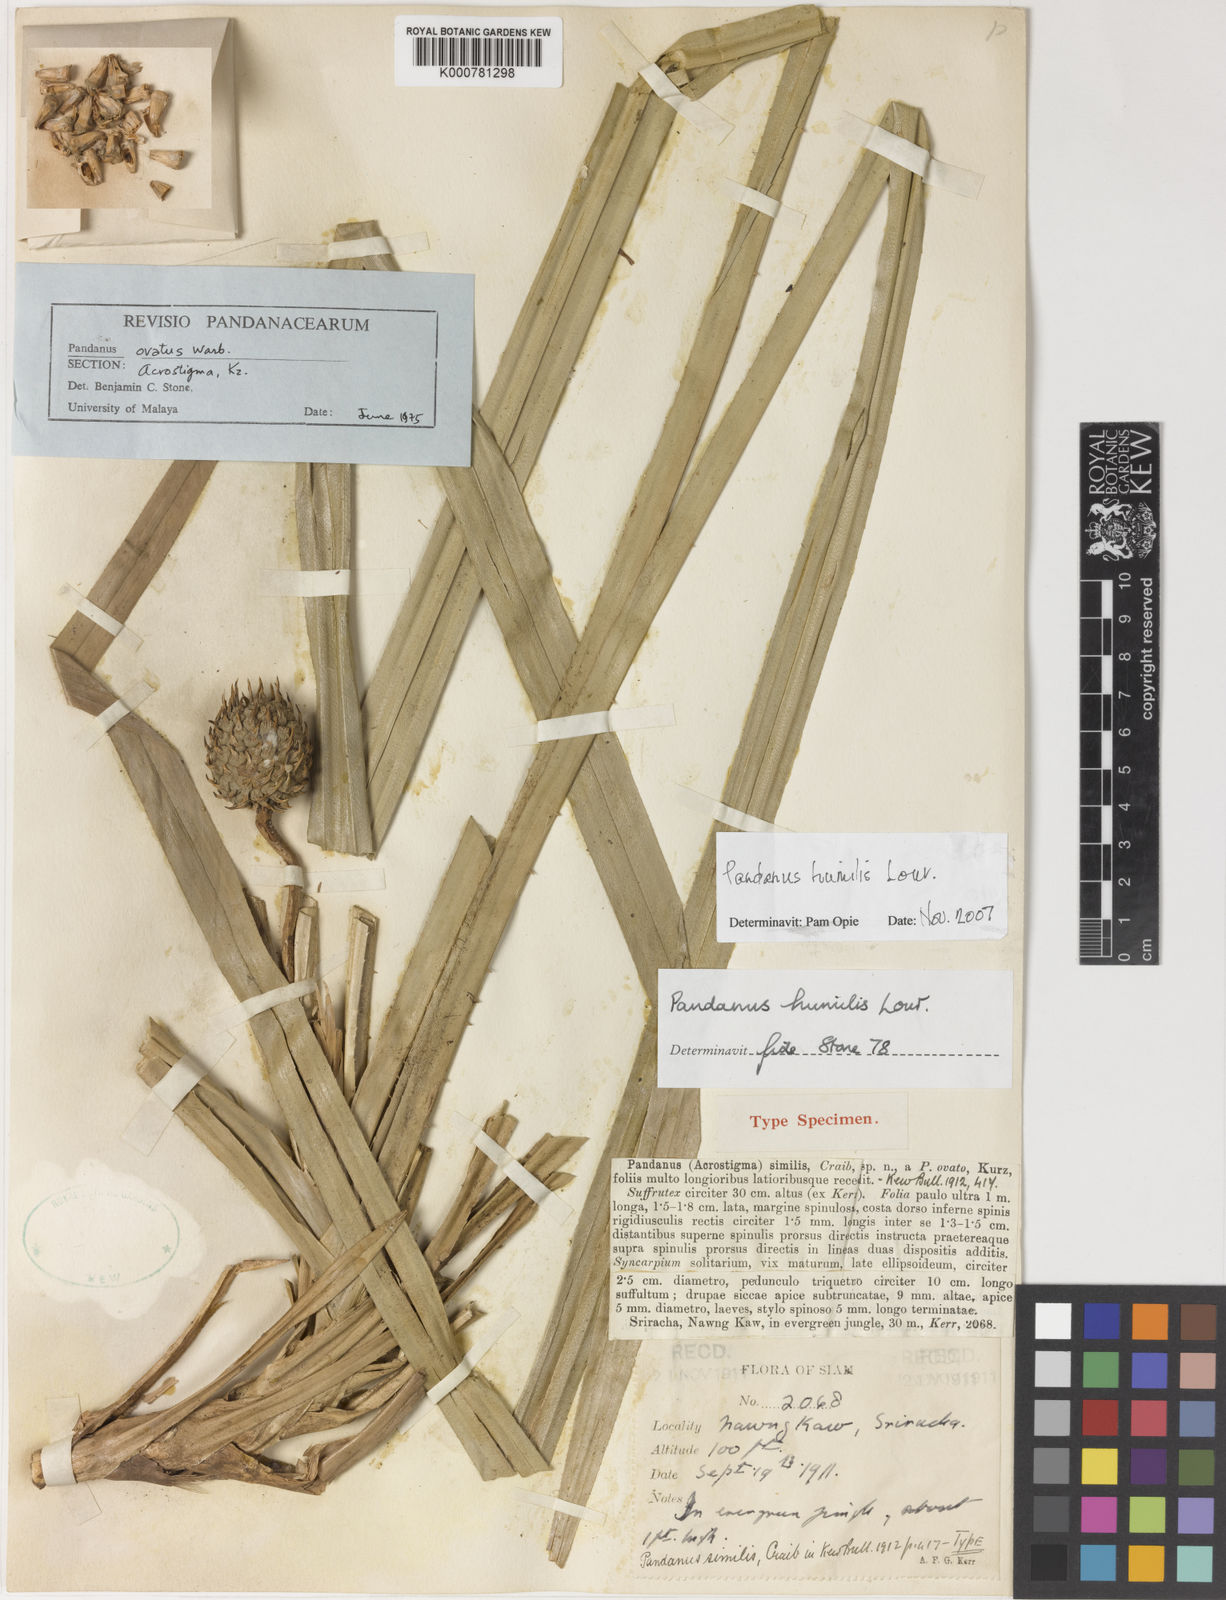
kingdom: Plantae
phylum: Tracheophyta
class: Liliopsida
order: Pandanales
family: Pandanaceae
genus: Benstonea
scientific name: Benstonea humilis
